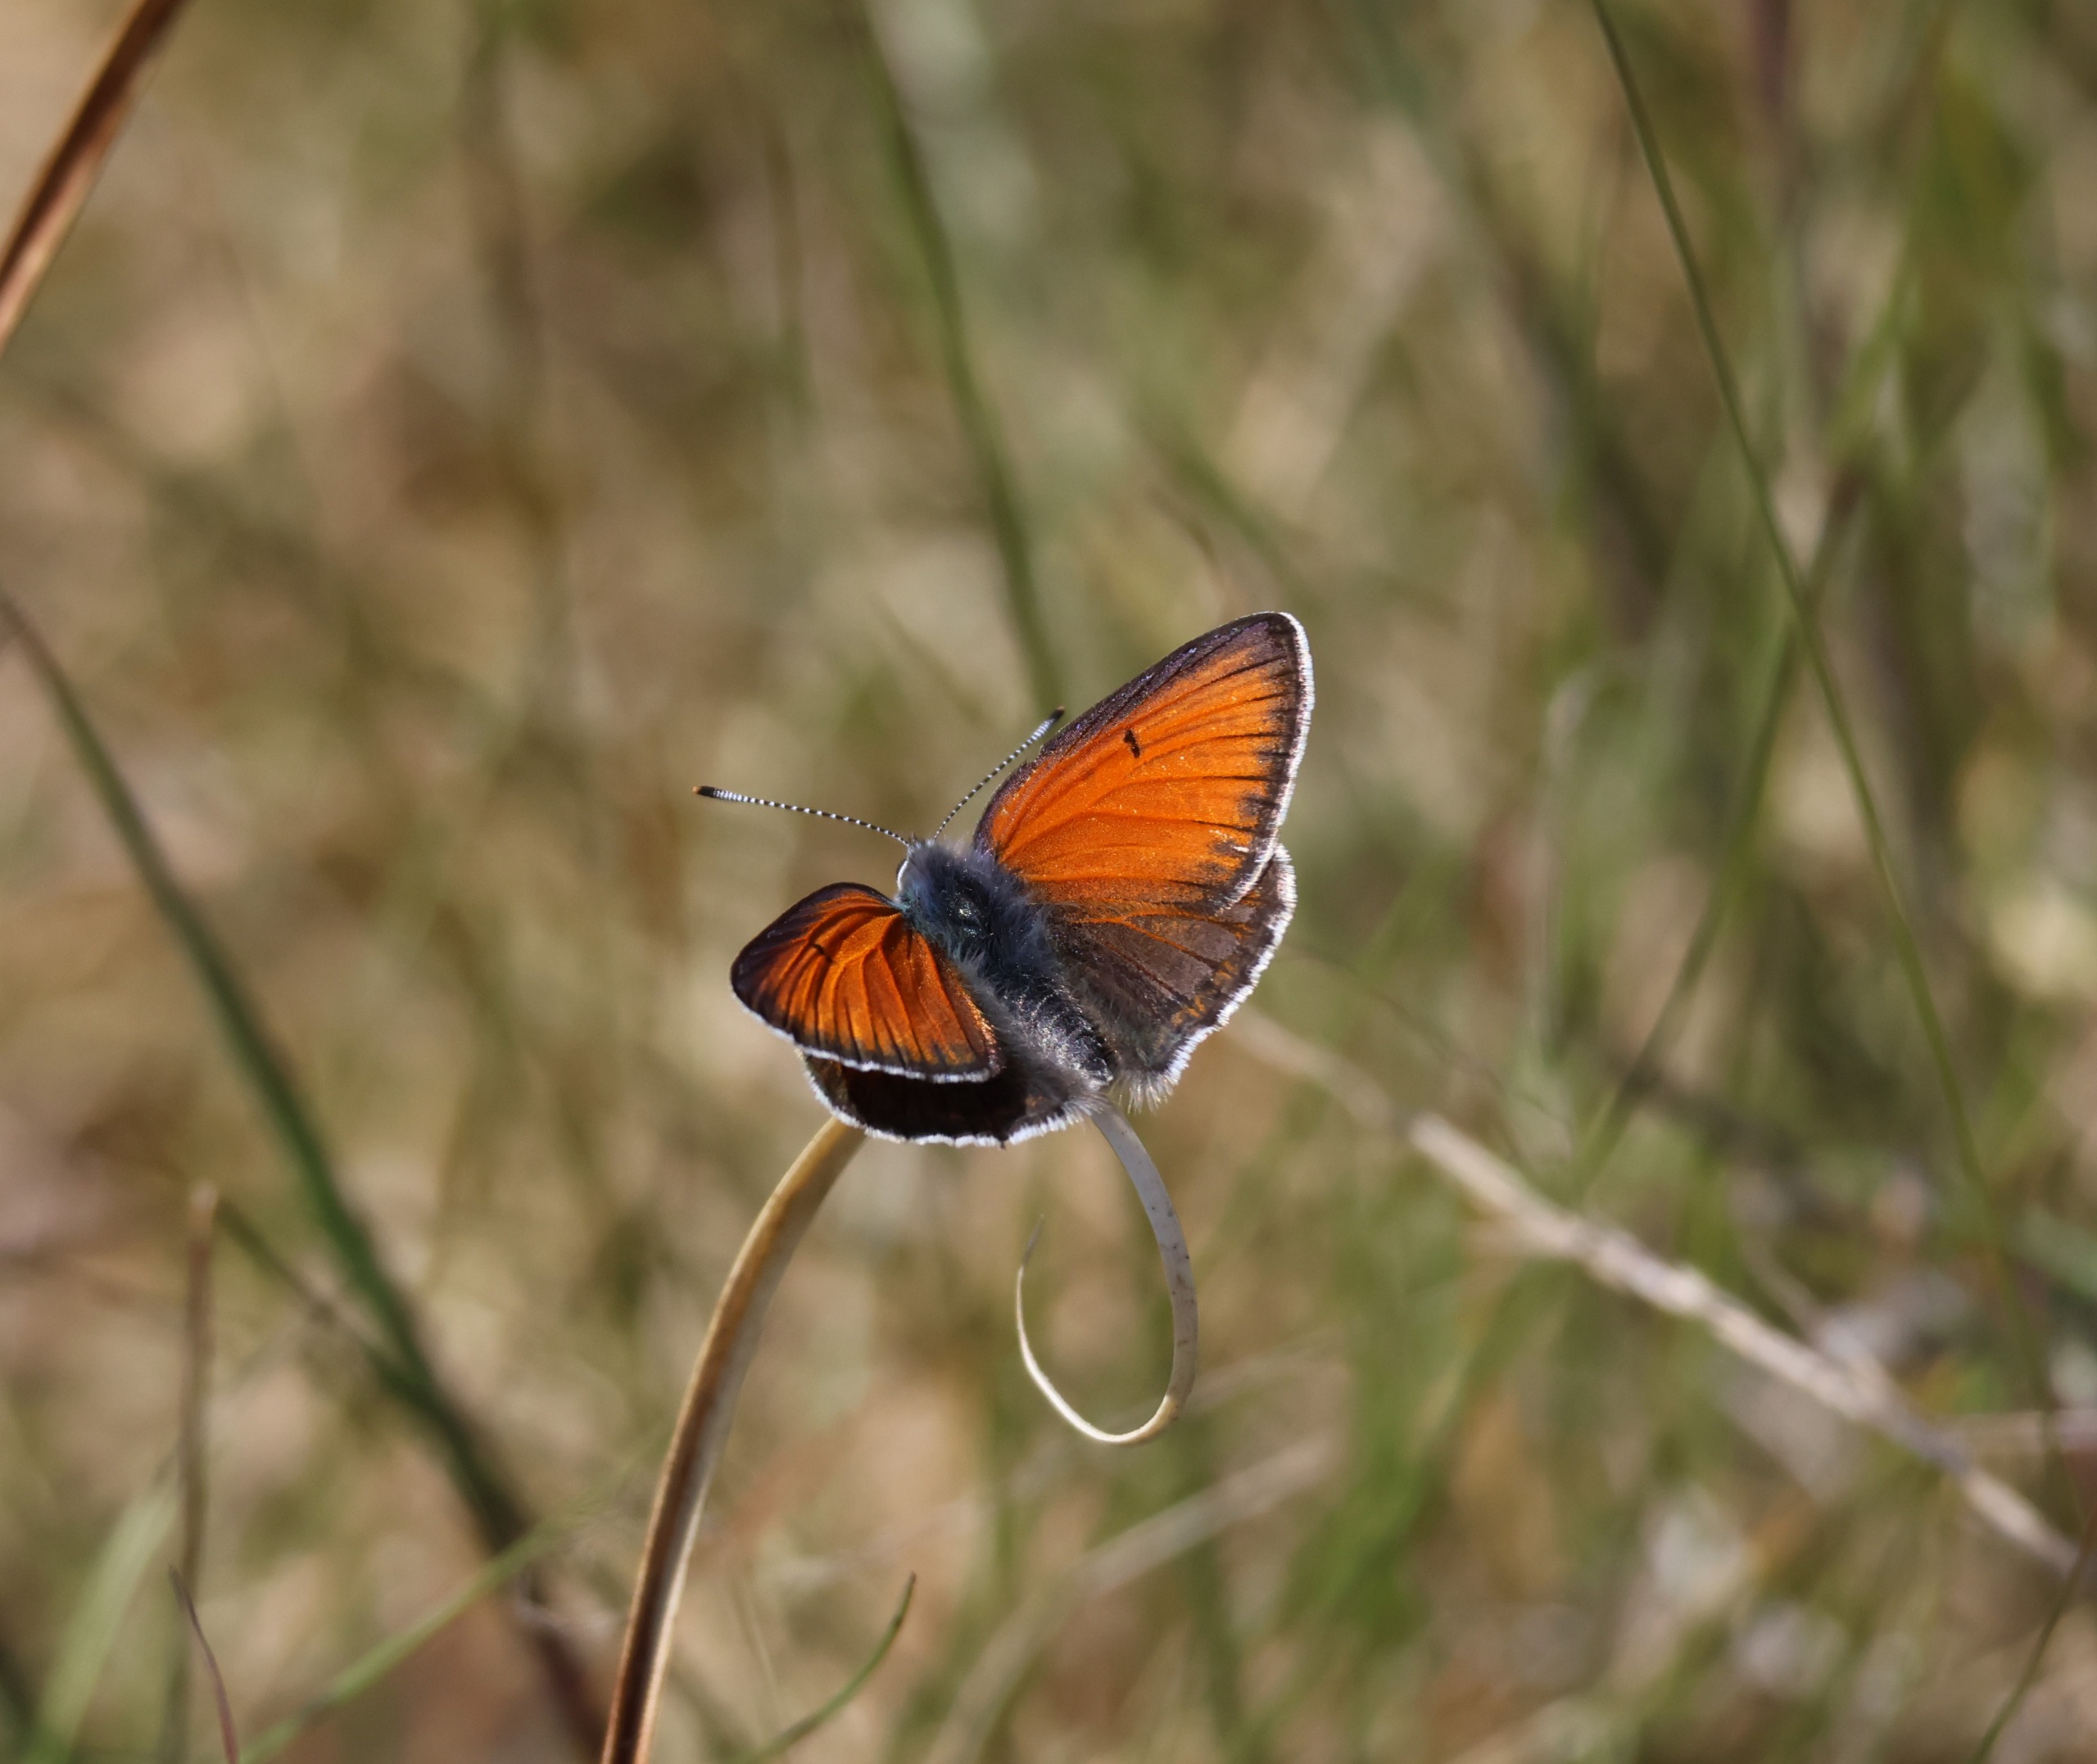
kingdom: Animalia
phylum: Arthropoda
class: Insecta
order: Lepidoptera
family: Lycaenidae
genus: Palaeochrysophanus
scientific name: Palaeochrysophanus hippothoe
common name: Violetrandet ildfugl
